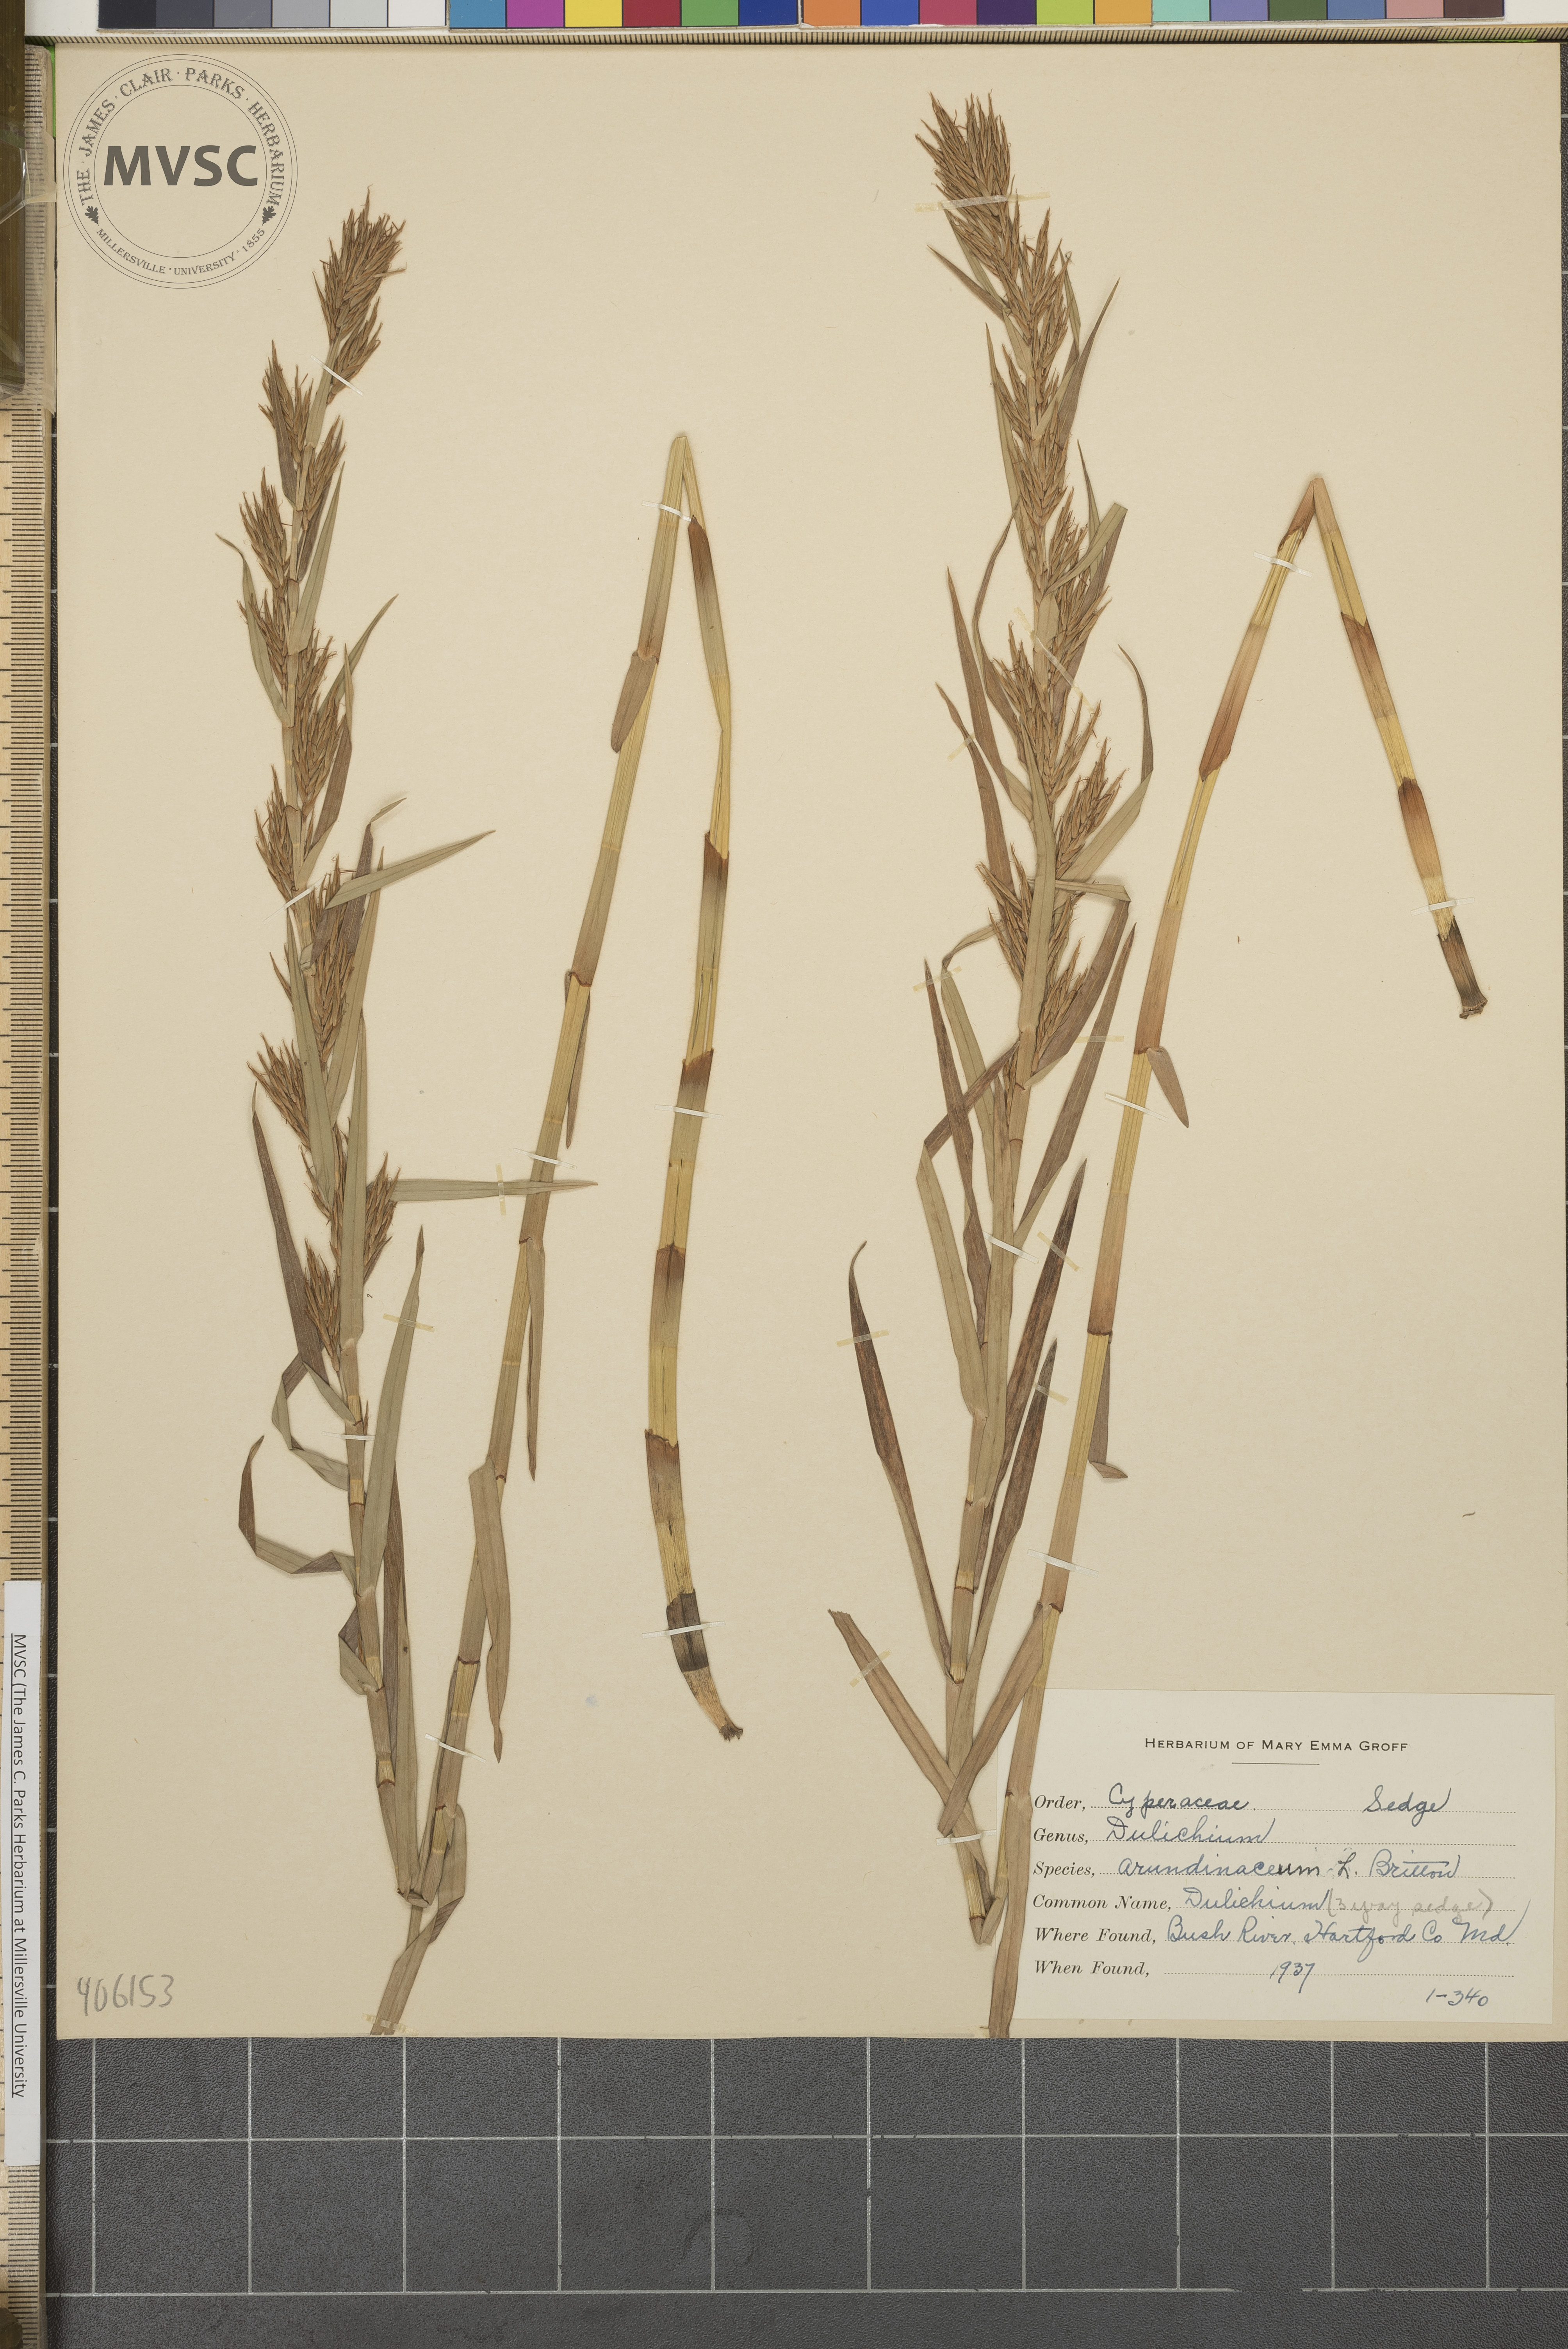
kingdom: Plantae
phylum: Tracheophyta
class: Liliopsida
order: Poales
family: Cyperaceae
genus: Dulichium
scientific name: Dulichium arundinaceum
